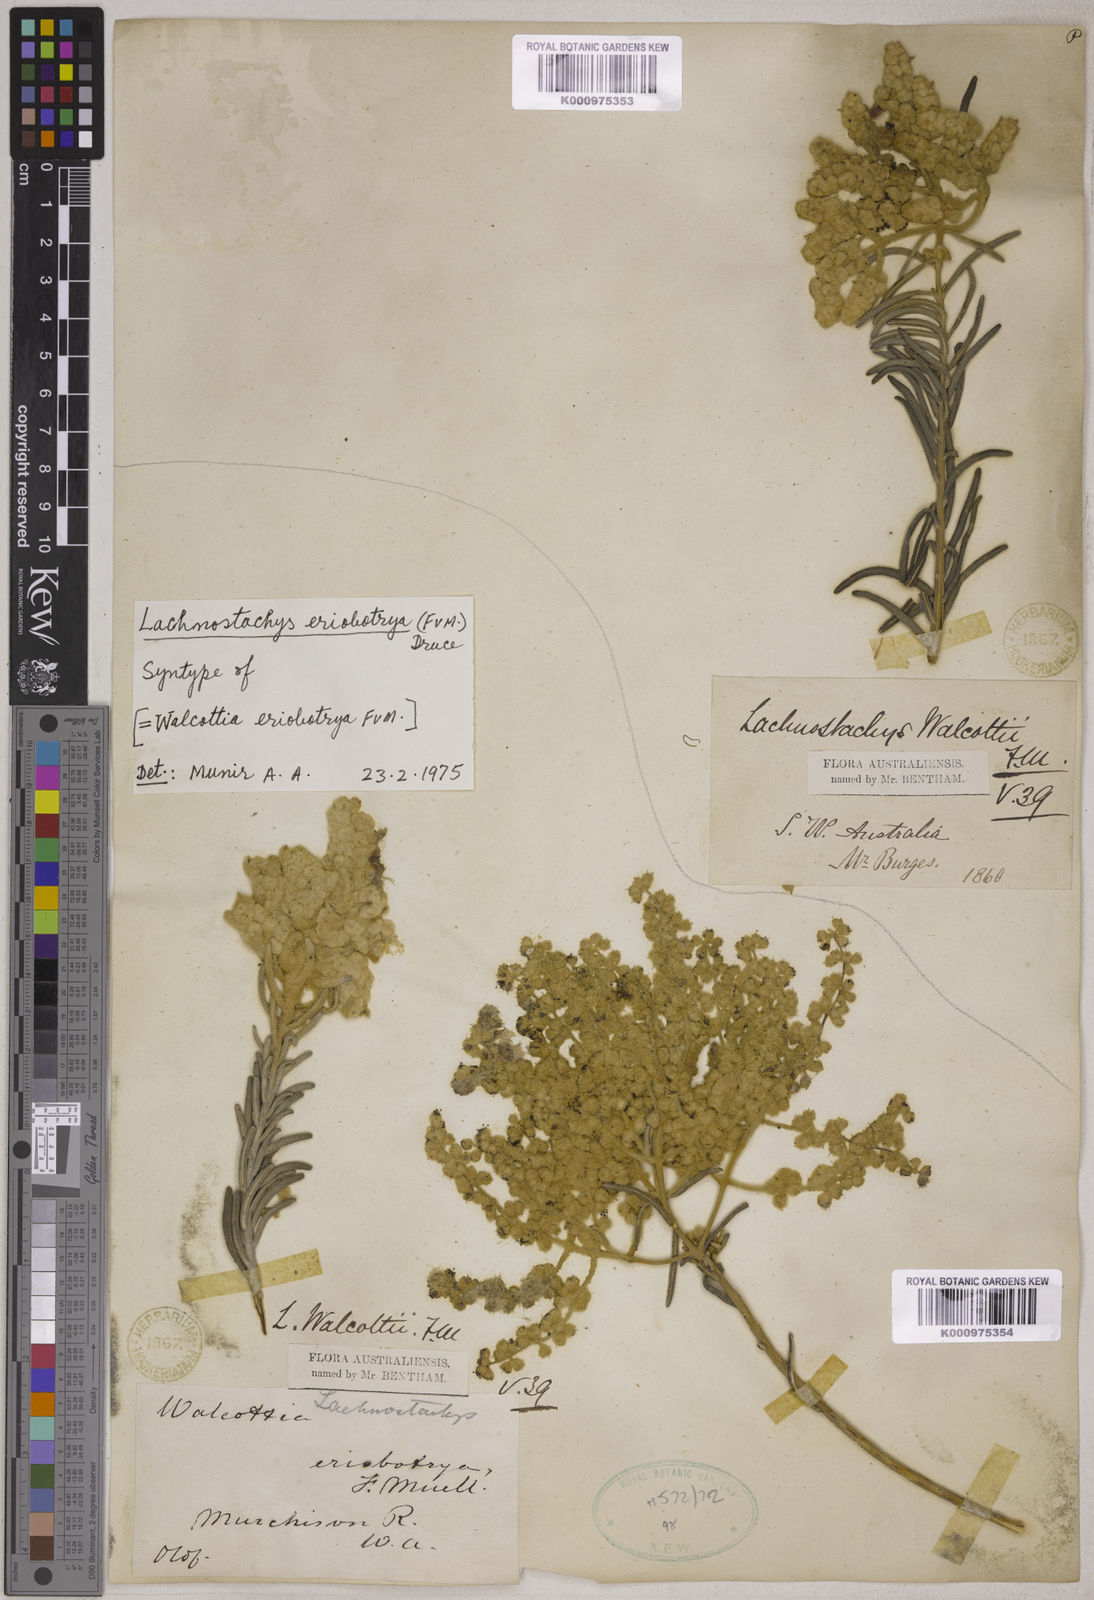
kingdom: Plantae
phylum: Tracheophyta
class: Magnoliopsida
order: Lamiales
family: Lamiaceae
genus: Lachnostachys
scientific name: Lachnostachys eriobotrya
